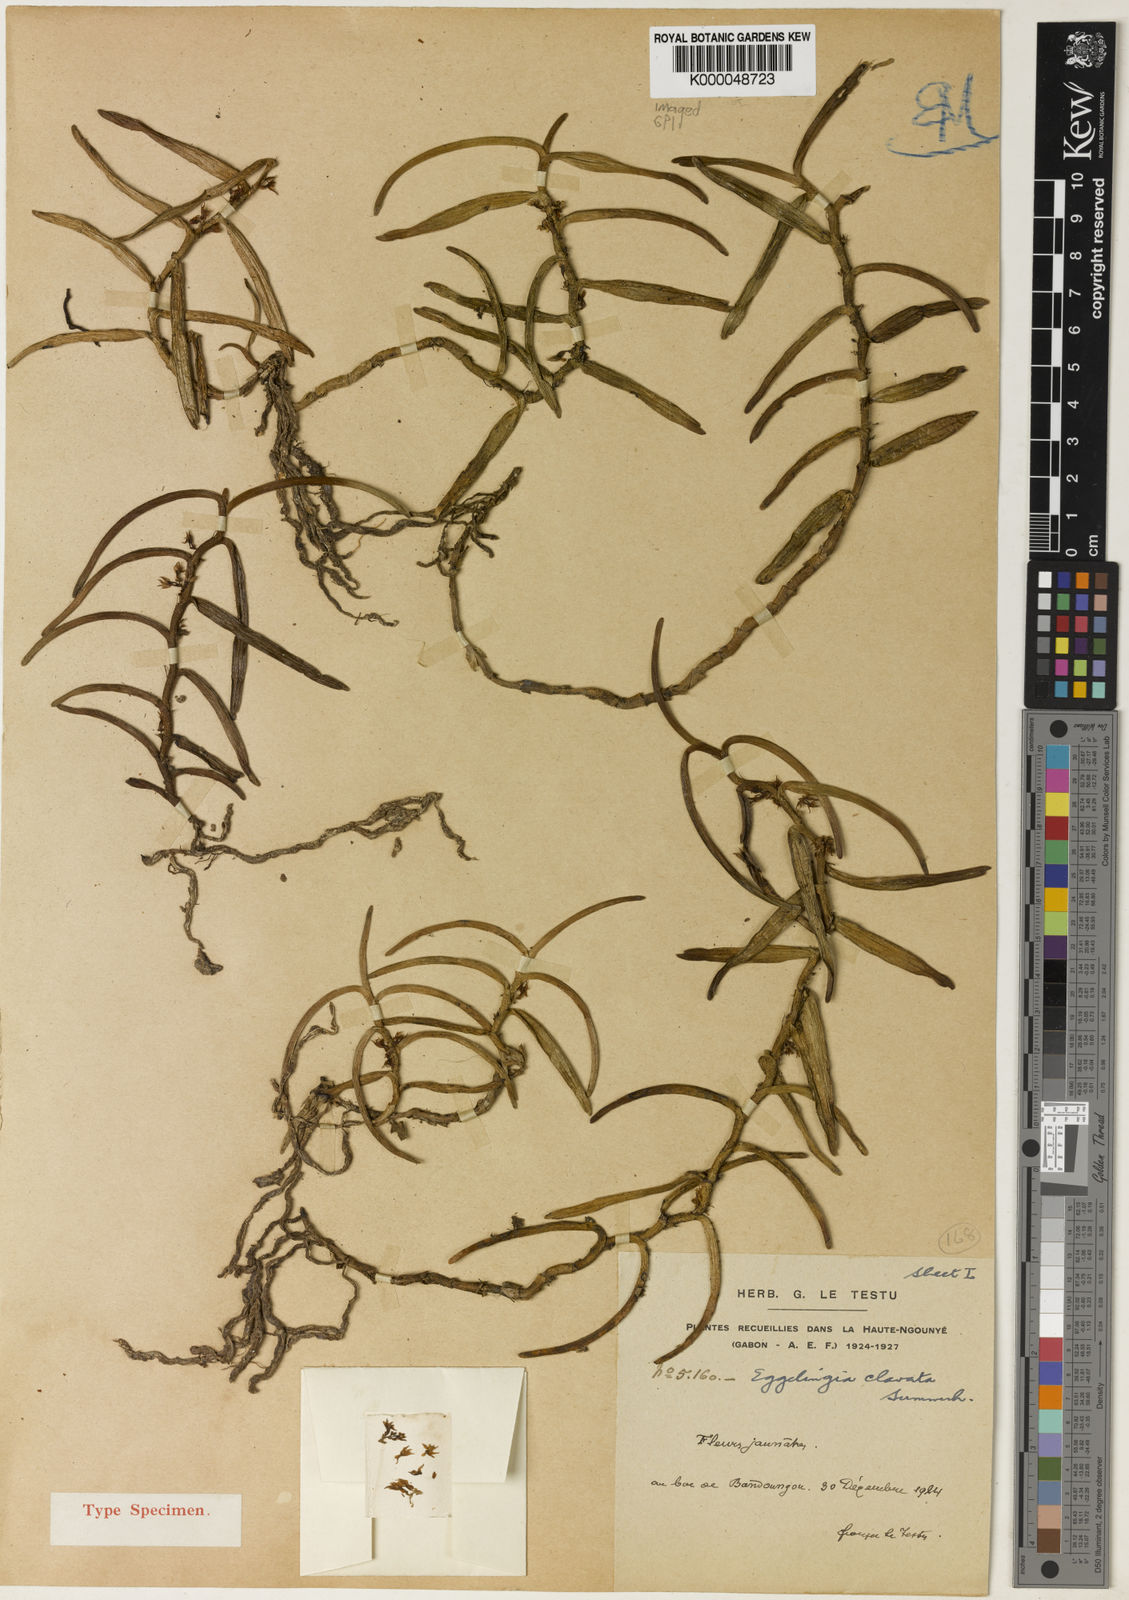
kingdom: Plantae
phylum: Tracheophyta
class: Liliopsida
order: Asparagales
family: Orchidaceae
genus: Eggelingia
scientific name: Eggelingia clavata
